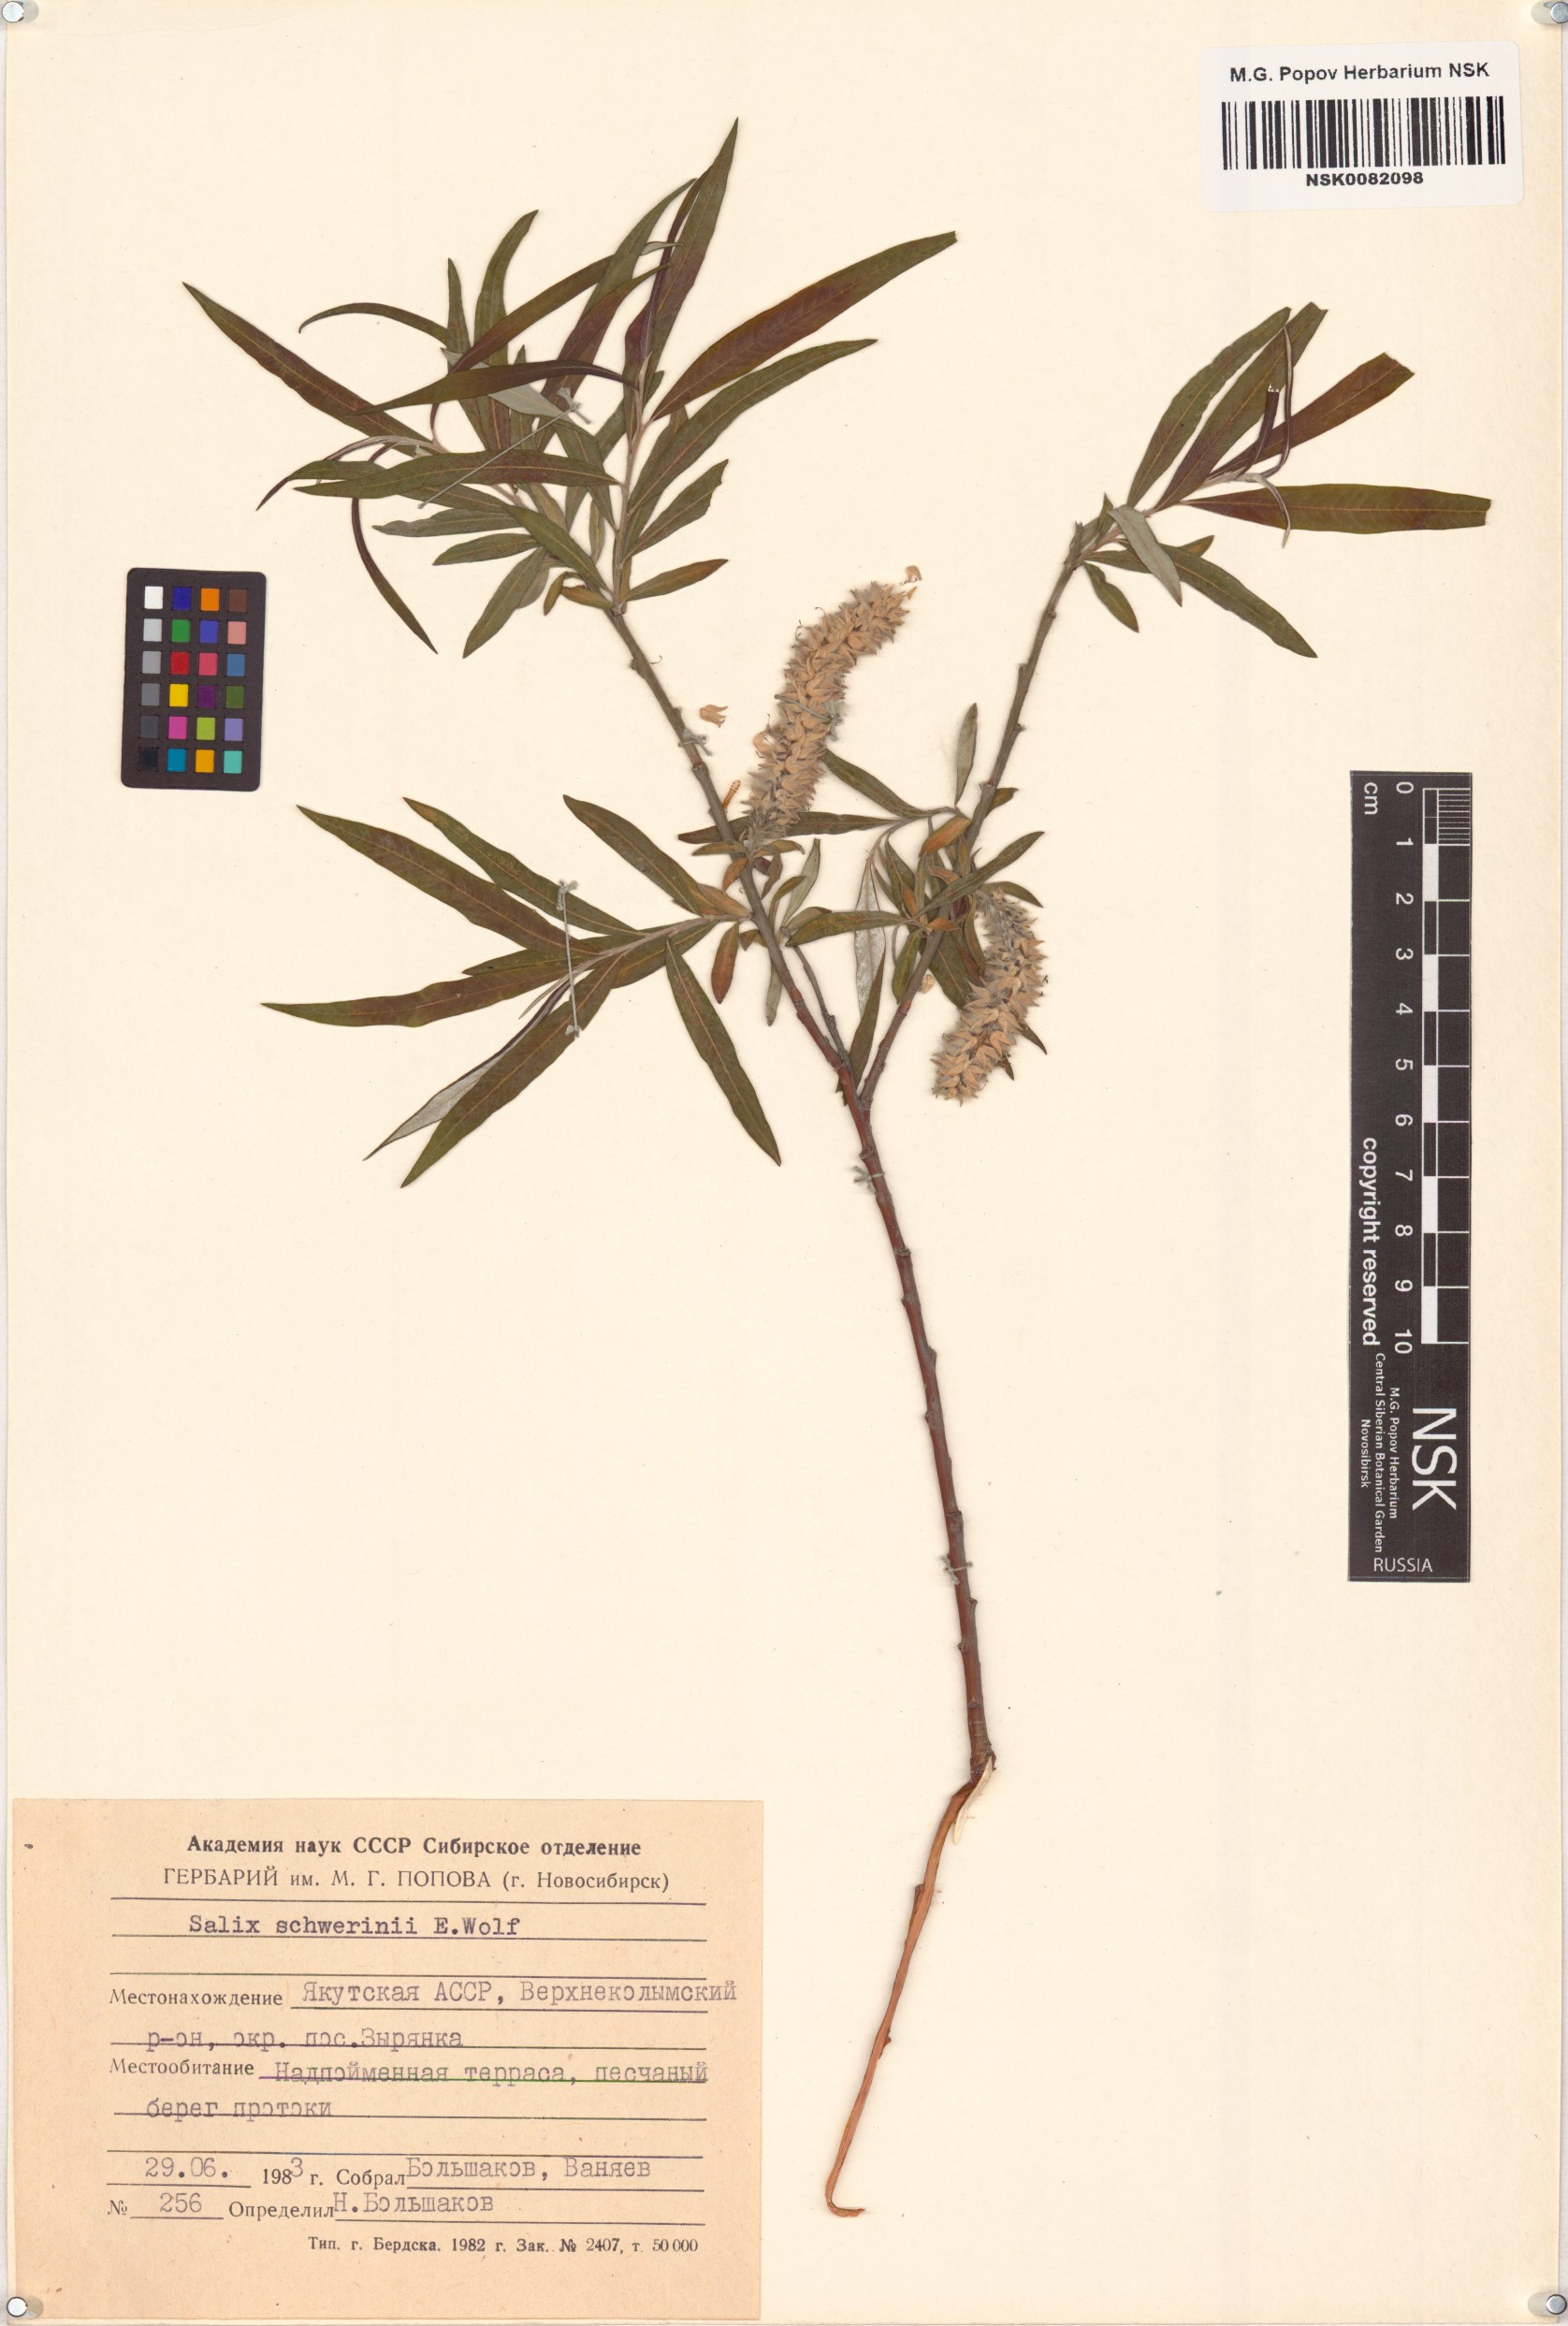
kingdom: Plantae
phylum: Tracheophyta
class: Magnoliopsida
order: Malpighiales
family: Salicaceae
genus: Salix
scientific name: Salix schwerinii
